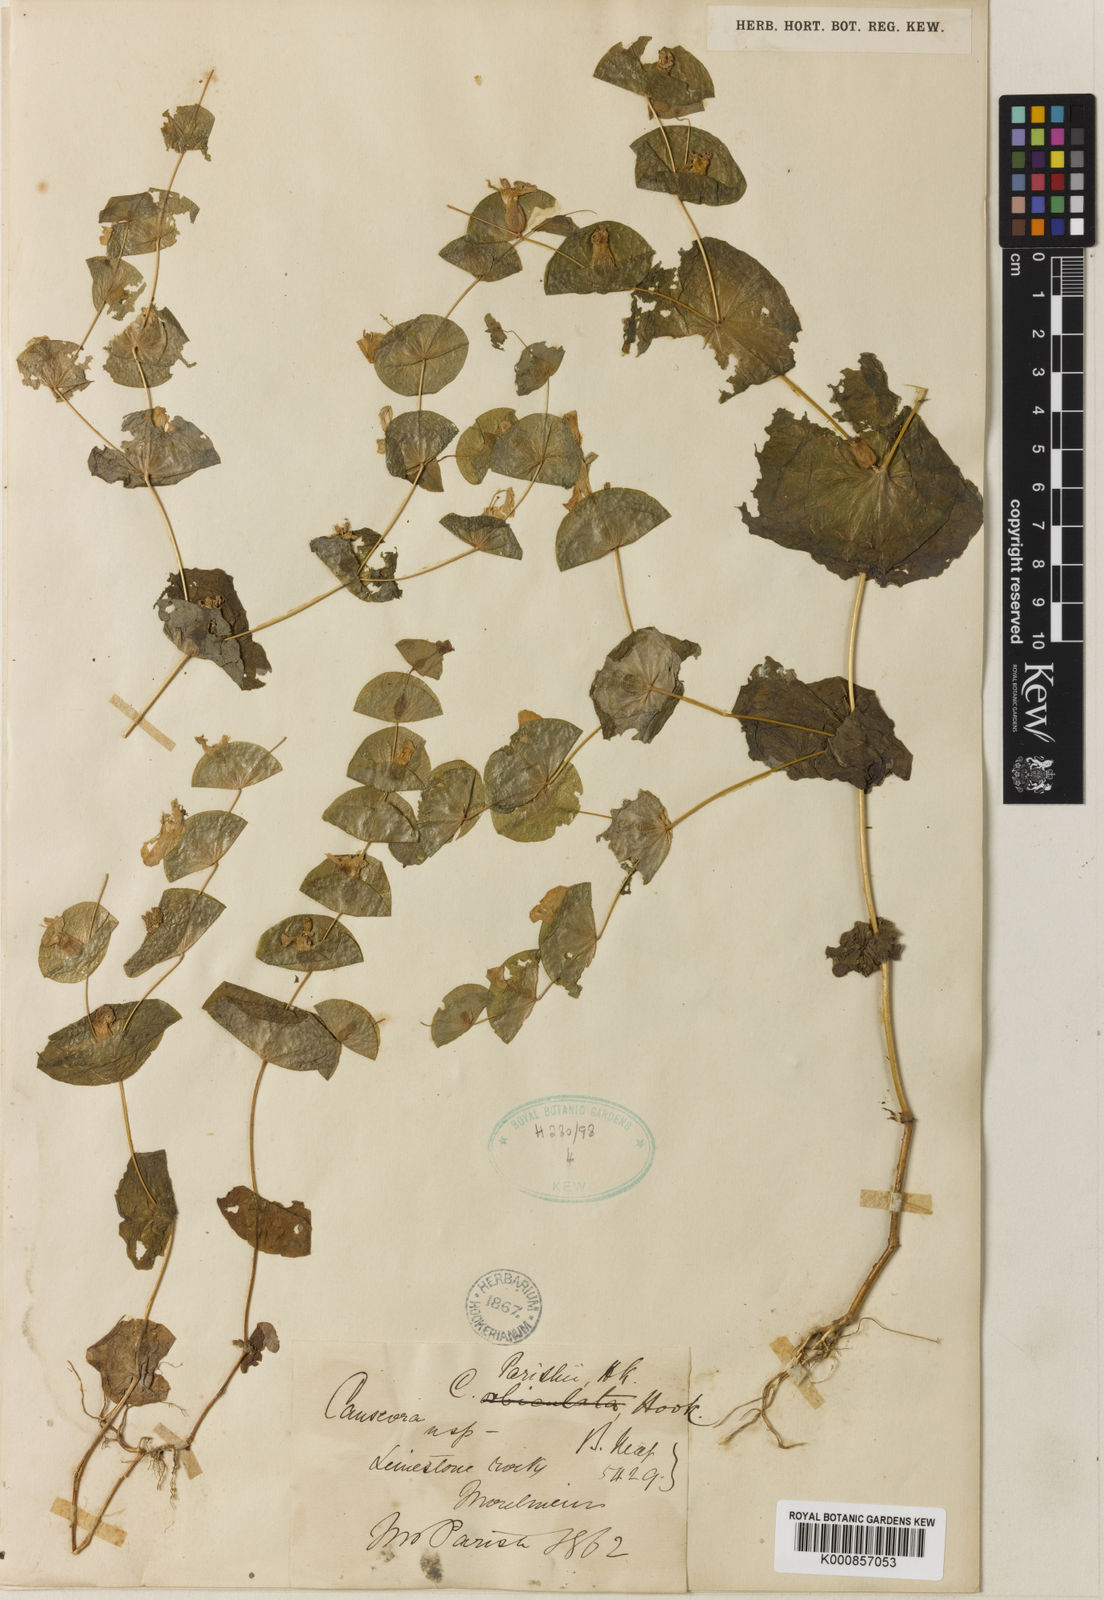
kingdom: Plantae
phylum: Tracheophyta
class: Magnoliopsida
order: Gentianales
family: Gentianaceae
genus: Phyllocyclus
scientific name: Phyllocyclus parishii
